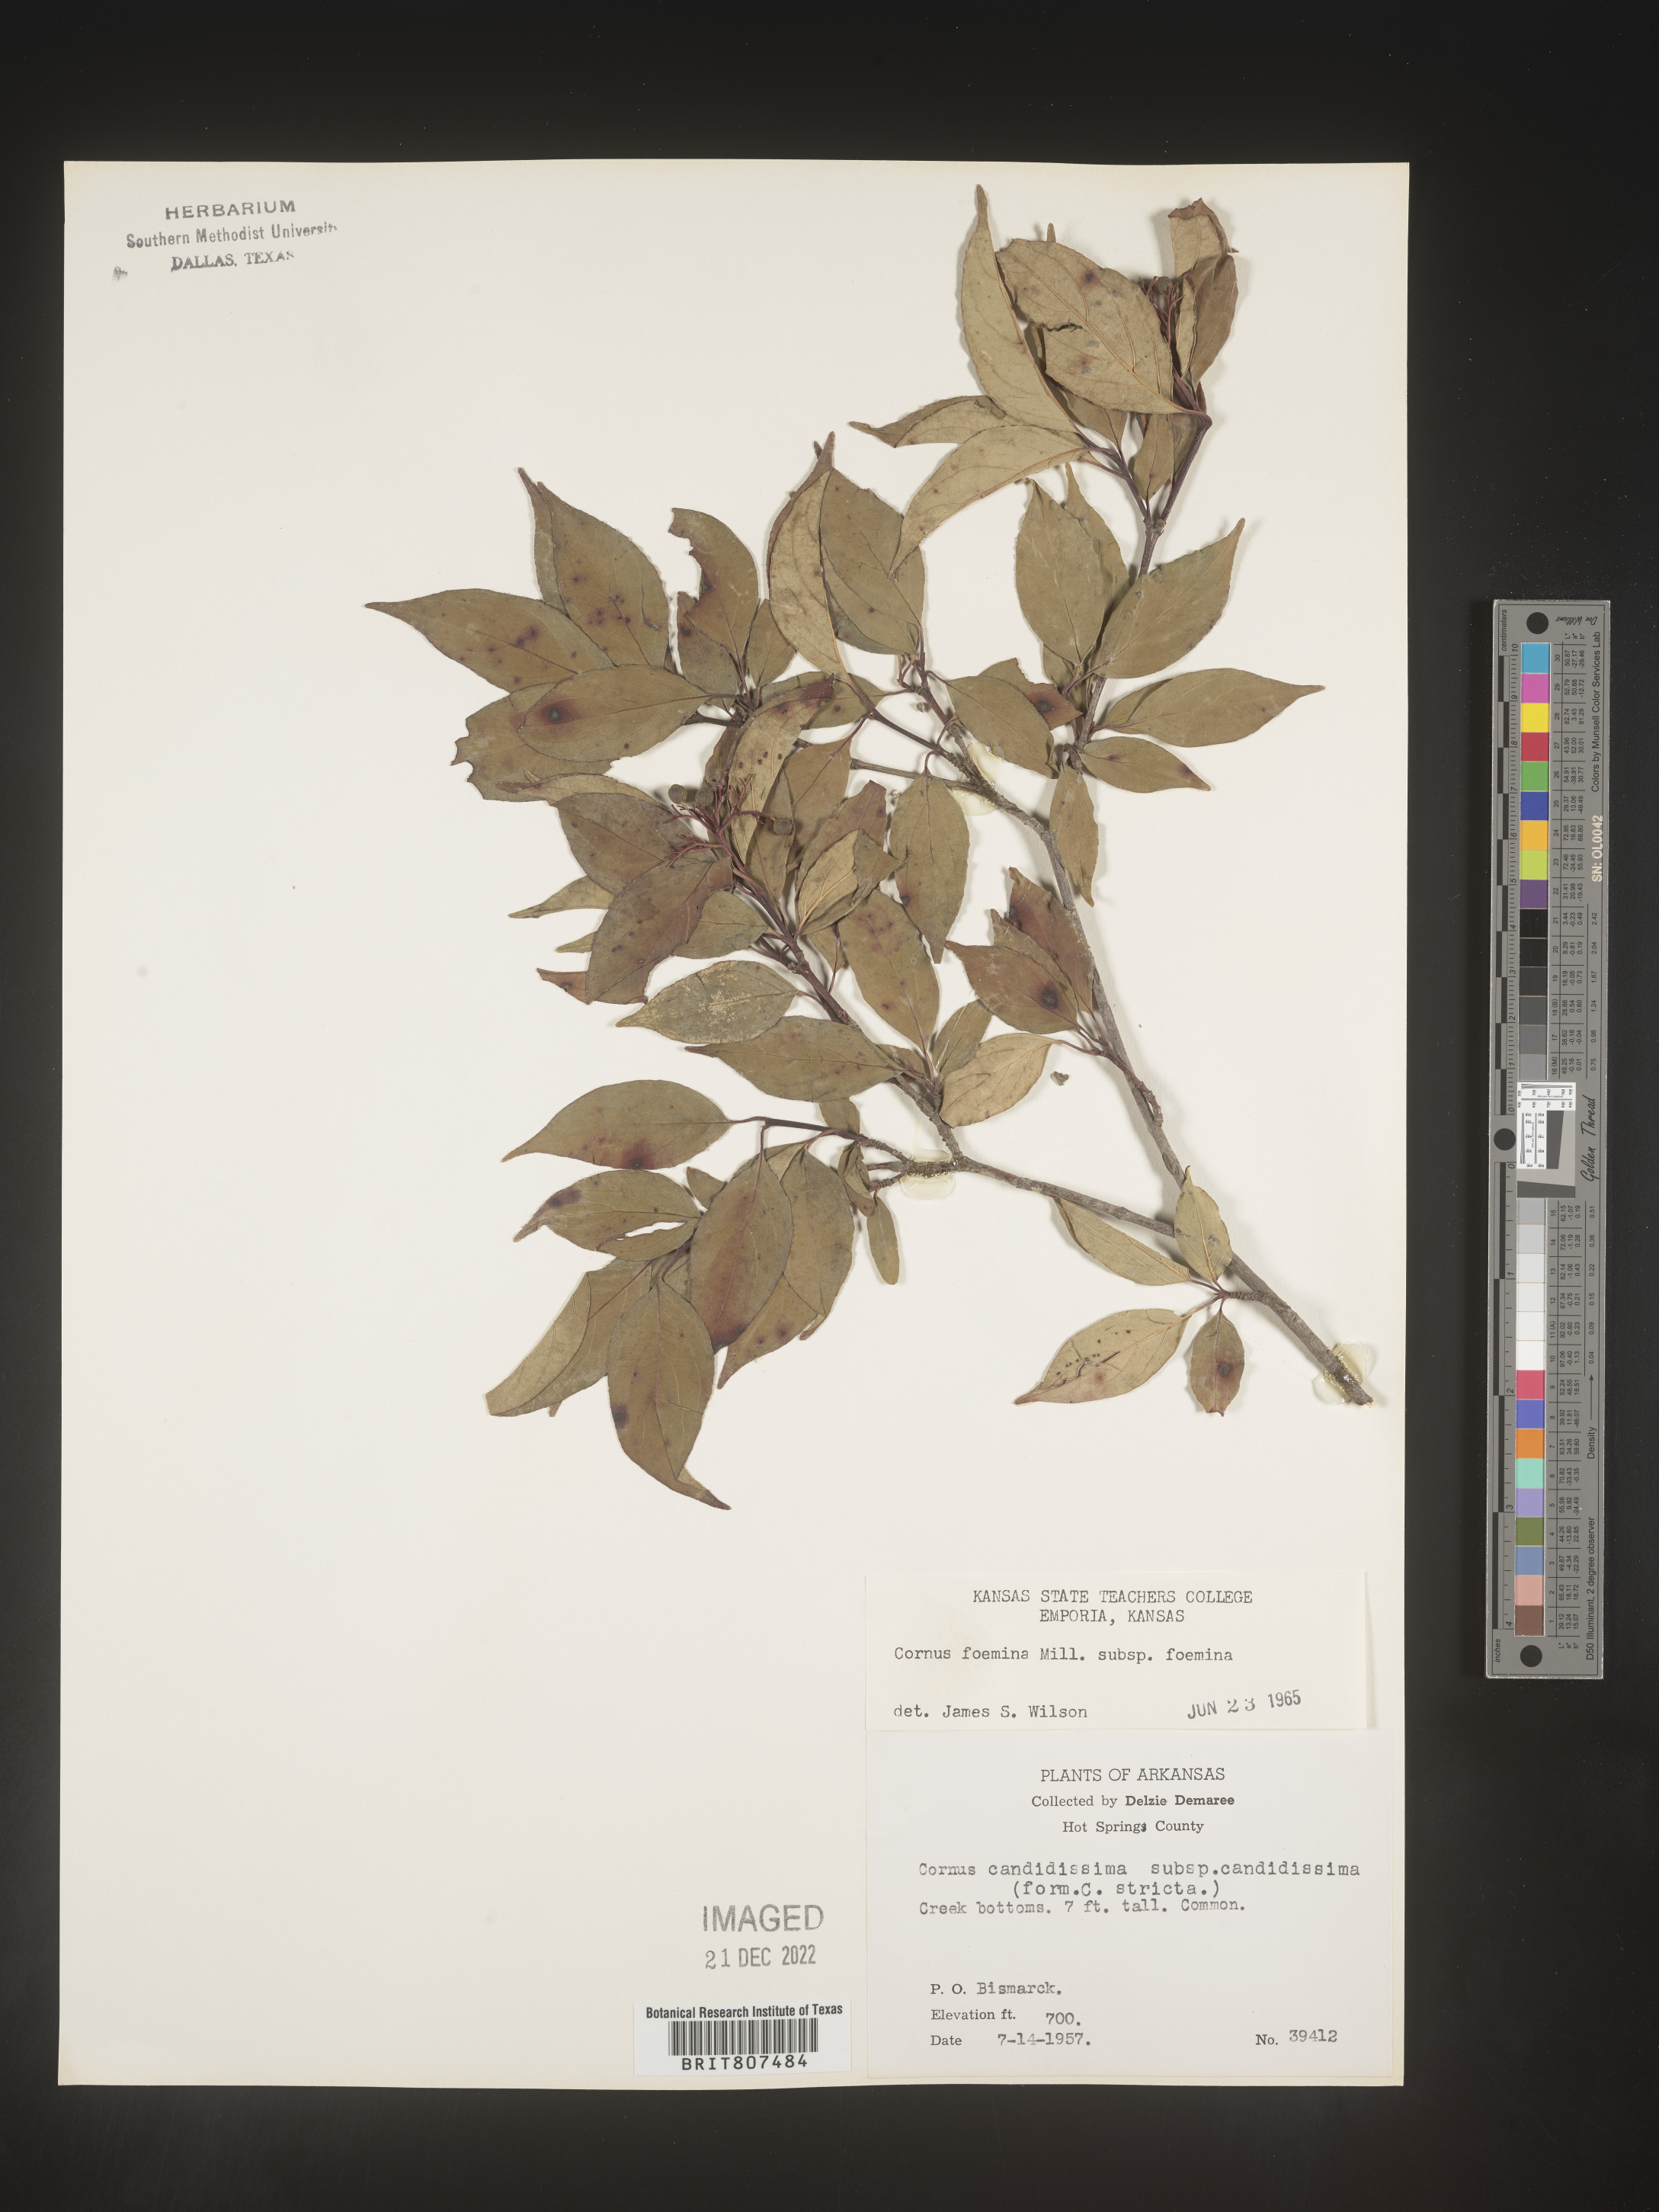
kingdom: Plantae
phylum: Tracheophyta
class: Magnoliopsida
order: Cornales
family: Cornaceae
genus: Cornus
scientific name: Cornus foemina
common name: Swamp dogwood
